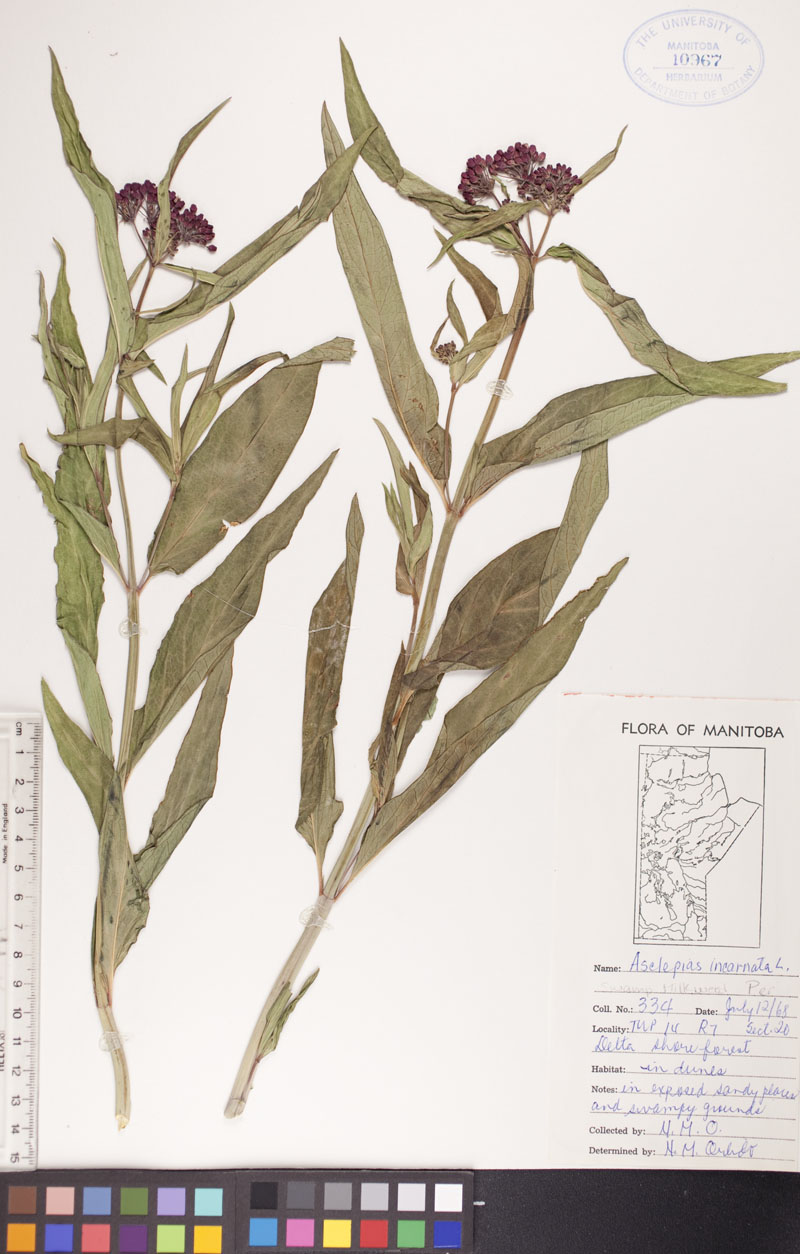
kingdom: Plantae
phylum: Tracheophyta
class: Magnoliopsida
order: Gentianales
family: Apocynaceae
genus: Asclepias
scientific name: Asclepias incarnata
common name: Swamp milkweed
